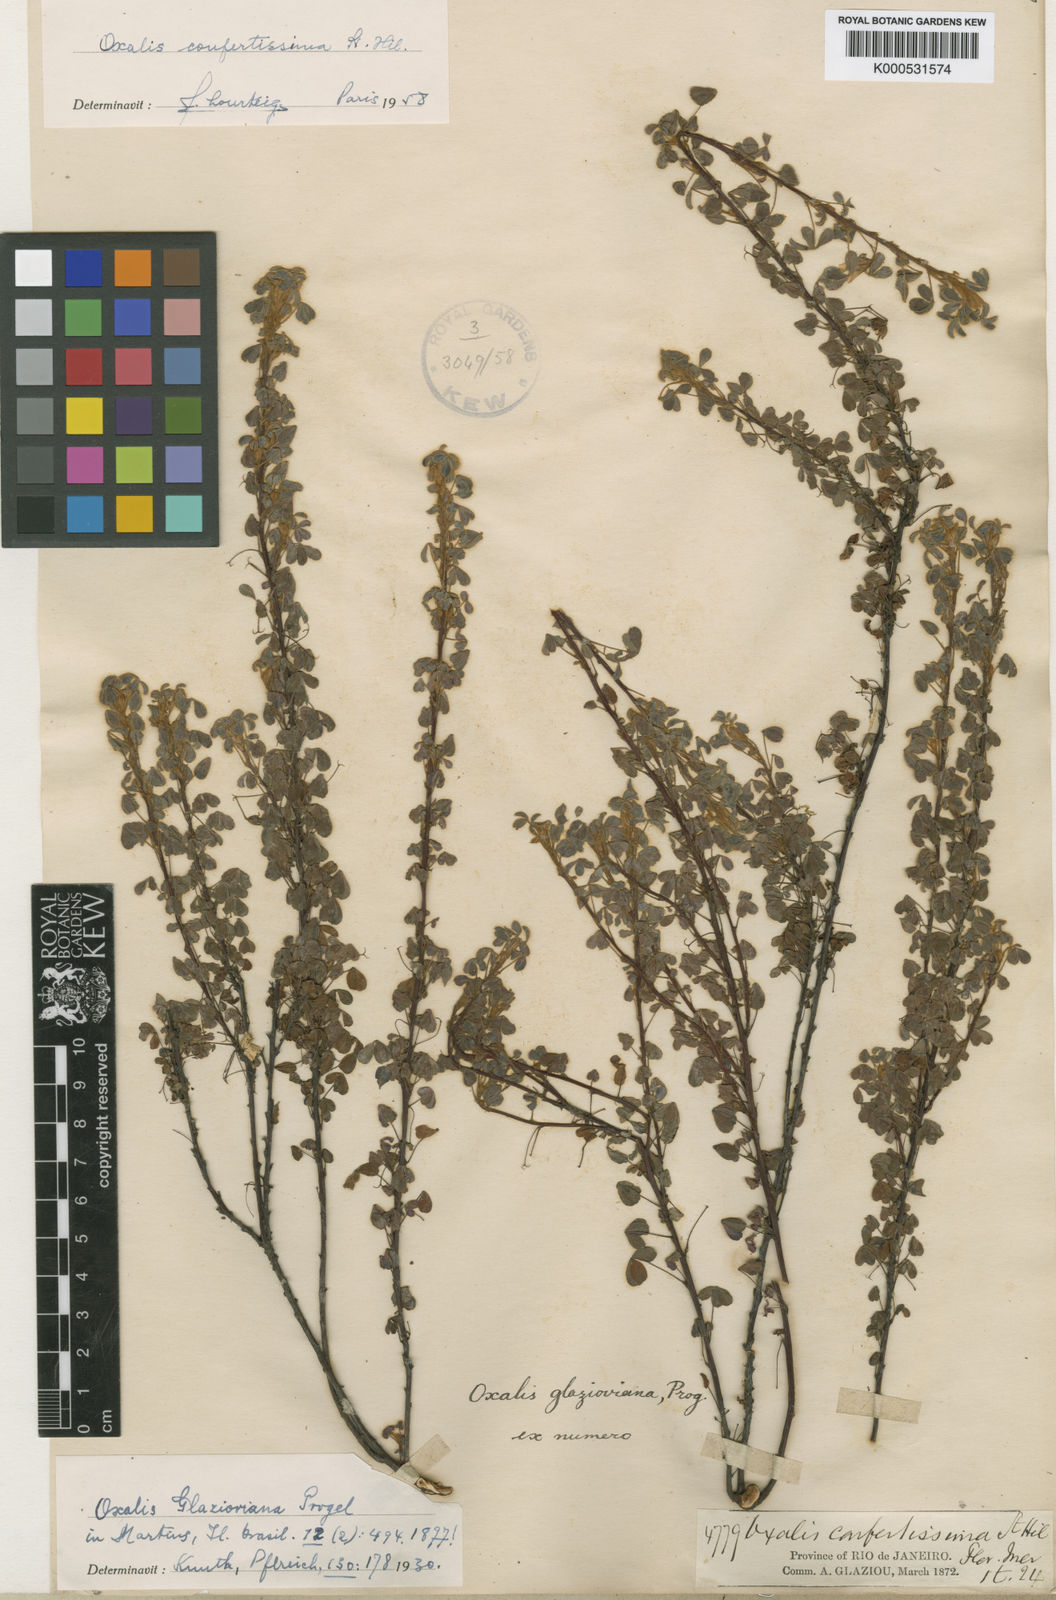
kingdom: Plantae
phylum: Tracheophyta
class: Magnoliopsida
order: Oxalidales
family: Oxalidaceae
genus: Oxalis
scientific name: Oxalis confertissima
